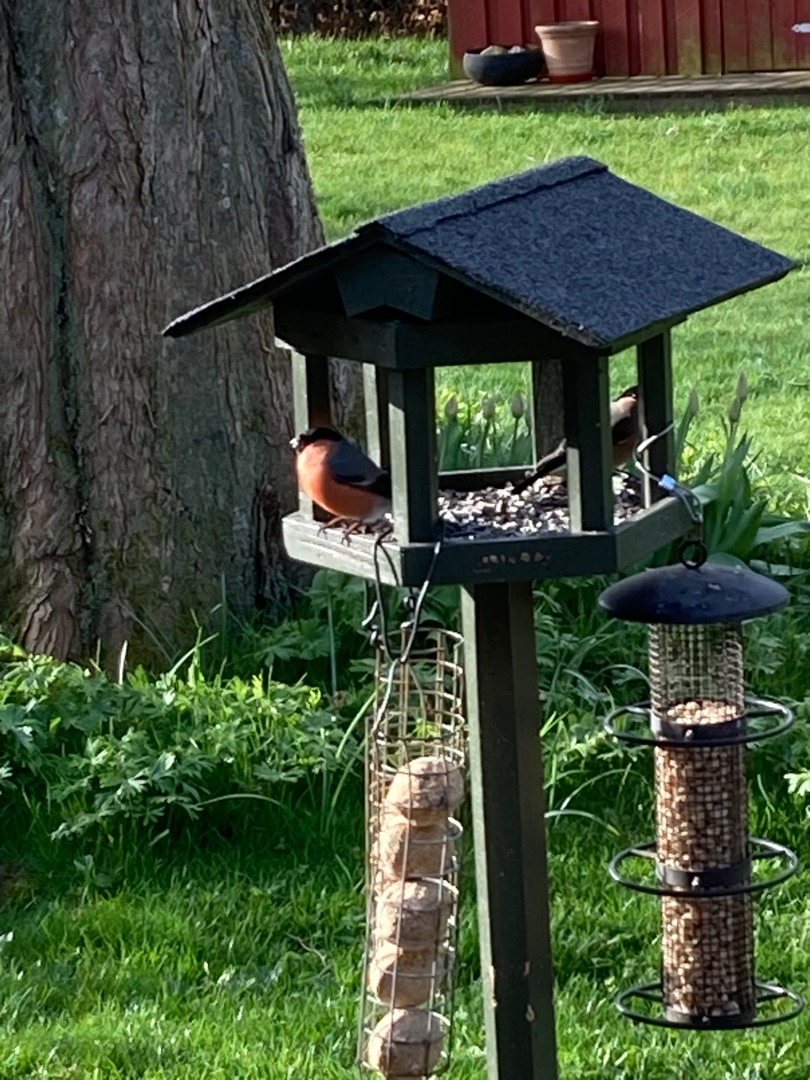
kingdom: Animalia
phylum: Chordata
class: Aves
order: Passeriformes
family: Fringillidae
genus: Pyrrhula
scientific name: Pyrrhula pyrrhula
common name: Dompap
